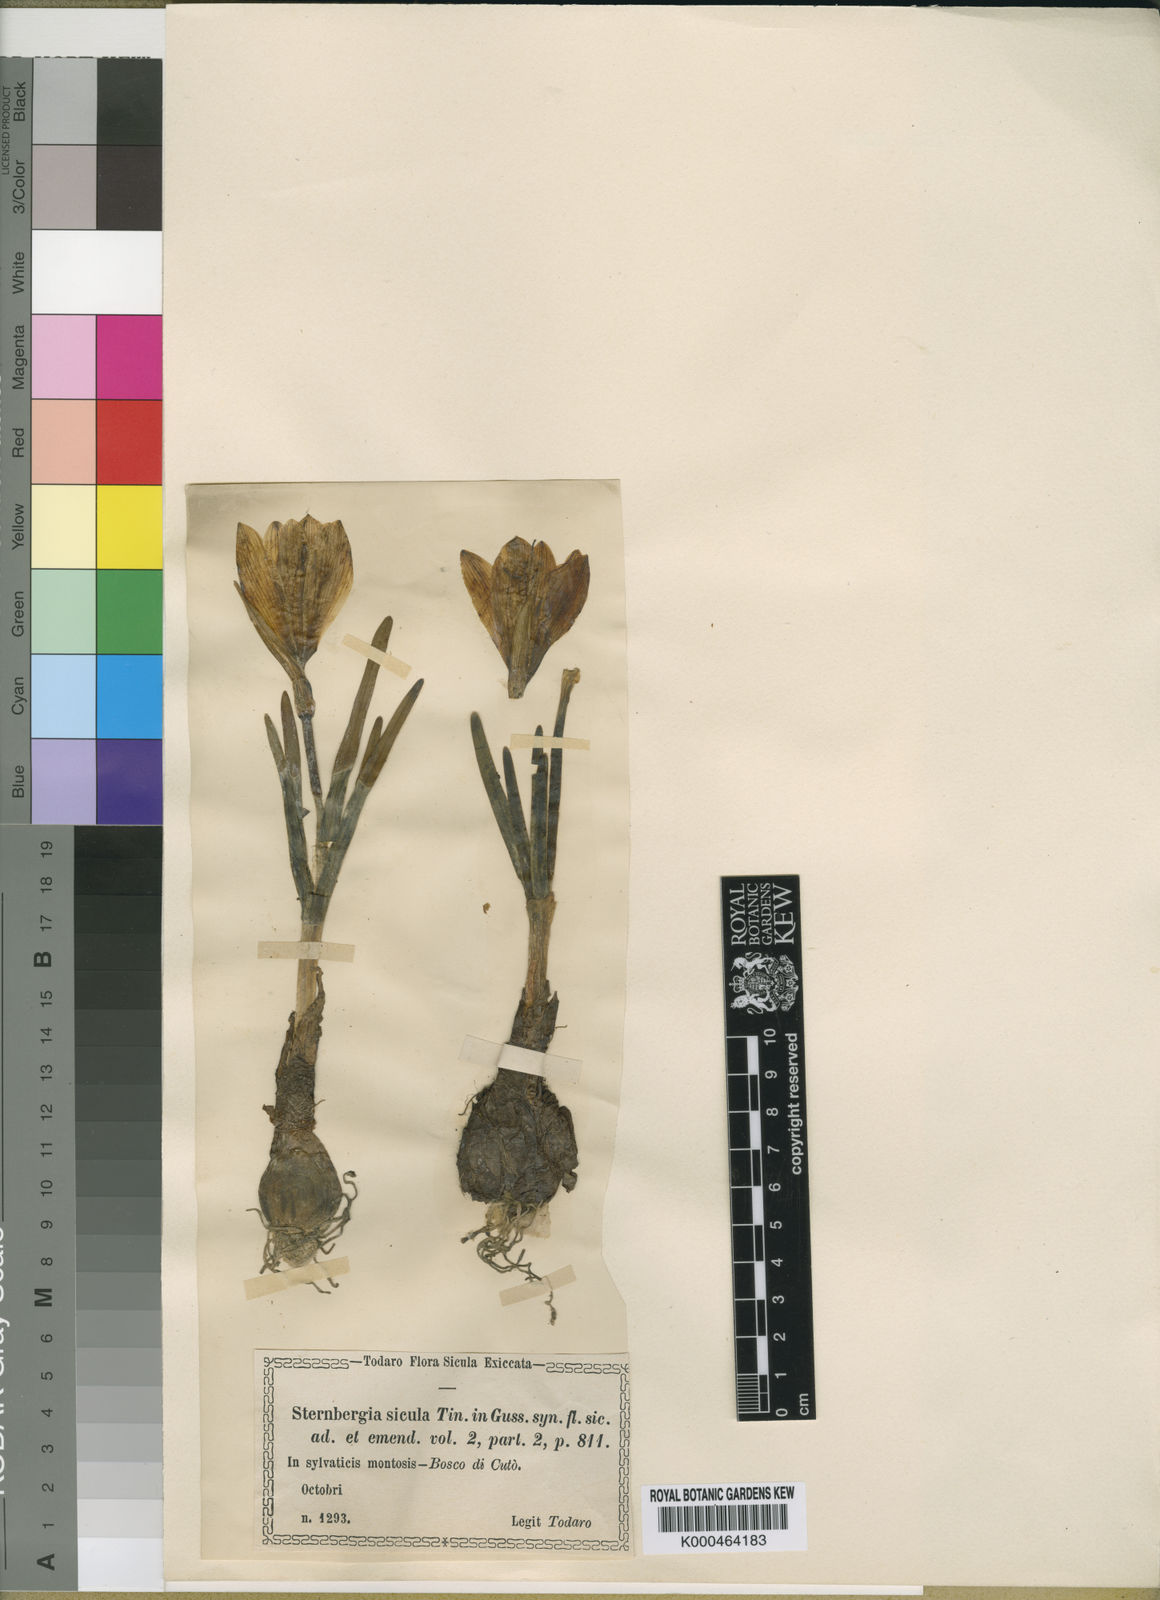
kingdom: Plantae
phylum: Tracheophyta
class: Liliopsida
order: Asparagales
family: Amaryllidaceae
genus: Sternbergia
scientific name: Sternbergia
